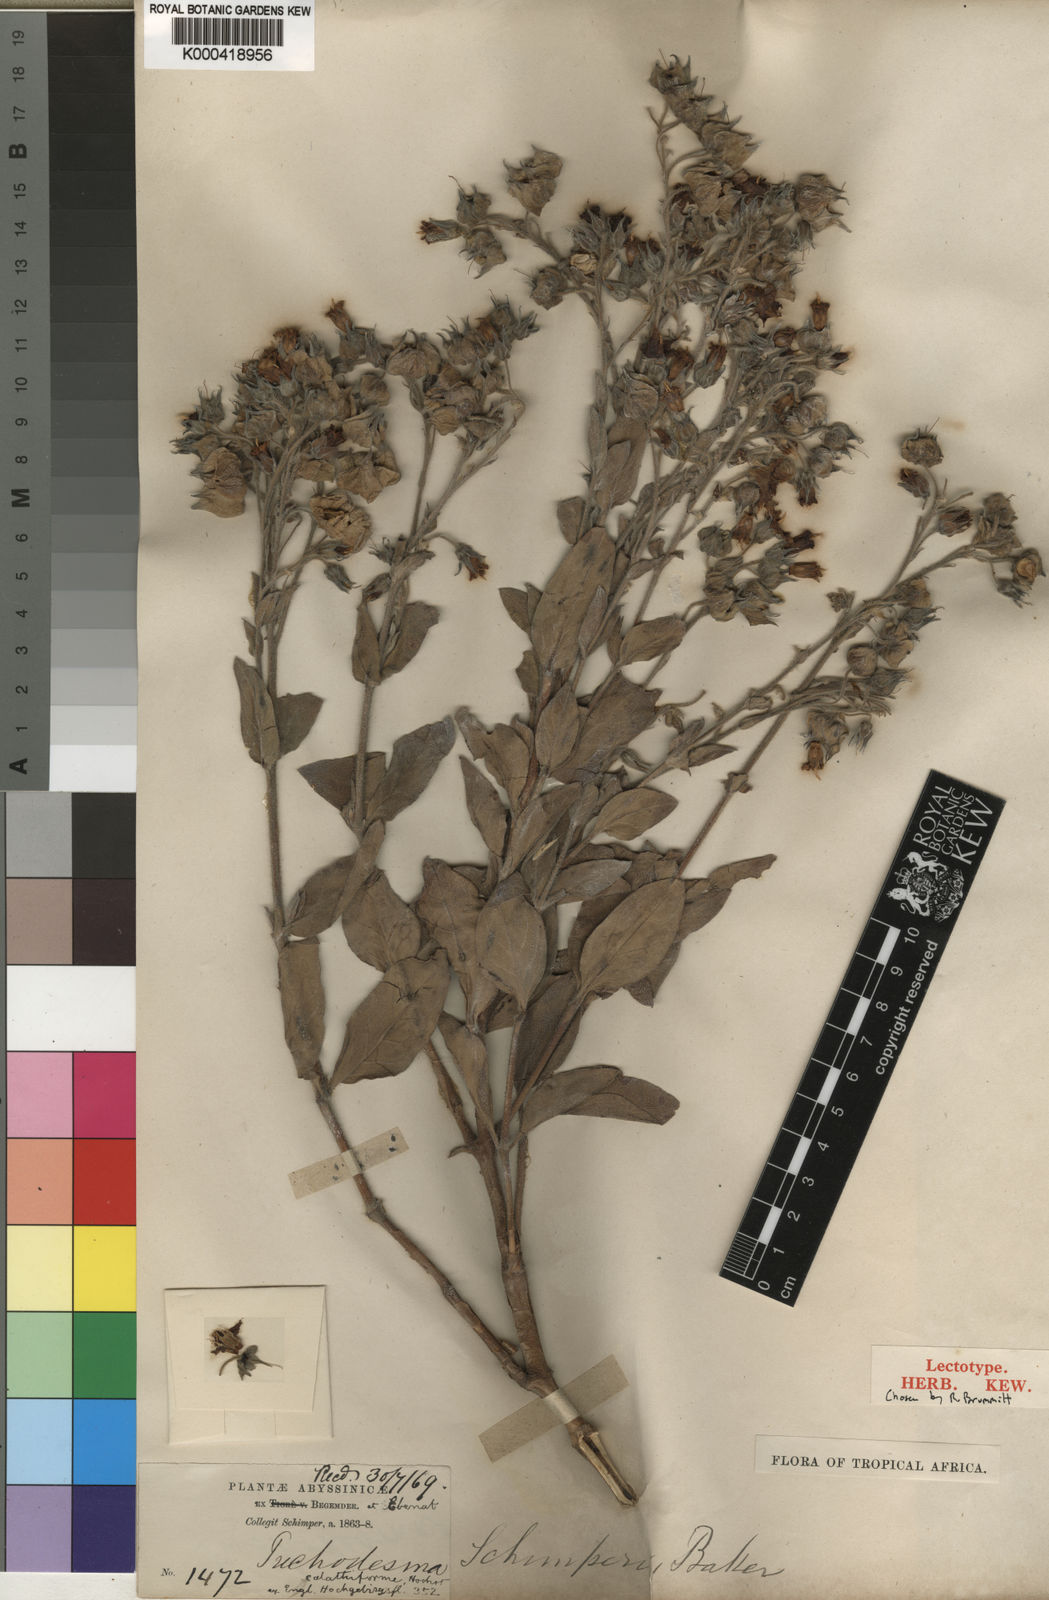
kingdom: Plantae
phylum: Tracheophyta
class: Magnoliopsida
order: Boraginales
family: Boraginaceae
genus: Trichodesma
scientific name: Trichodesma
